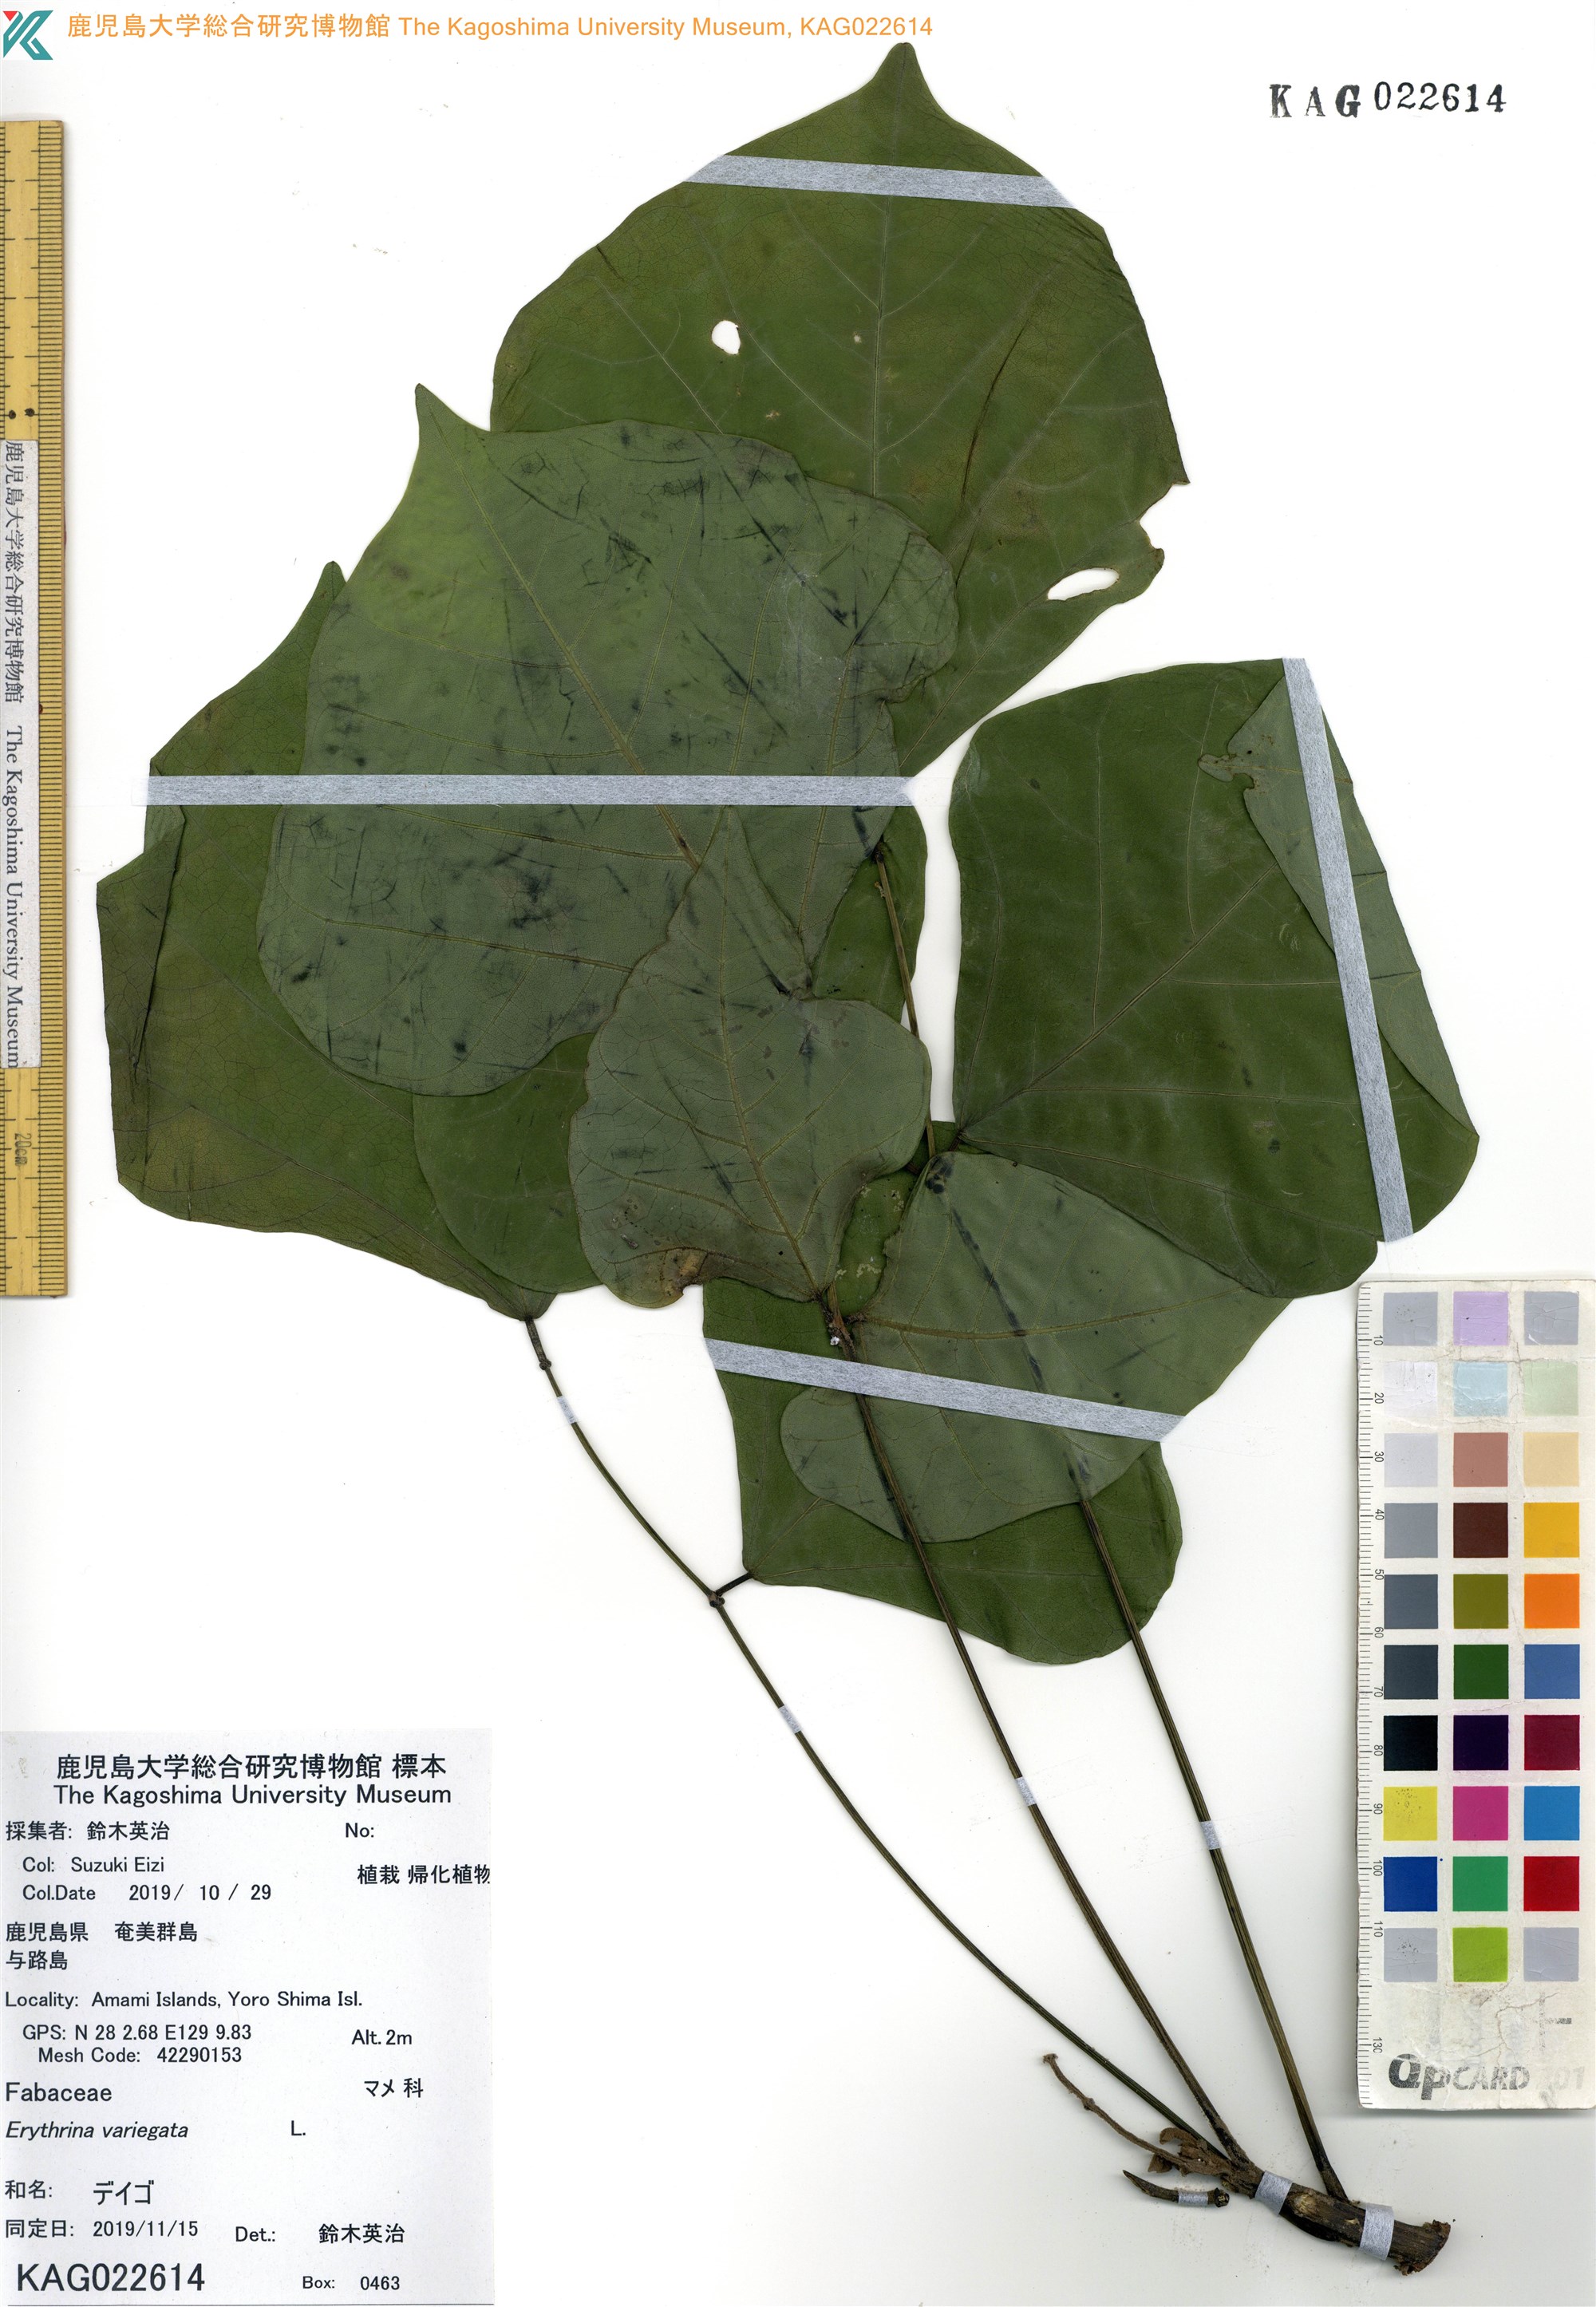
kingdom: Plantae
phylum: Tracheophyta
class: Magnoliopsida
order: Fabales
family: Fabaceae
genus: Erythrina
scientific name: Erythrina variegata
